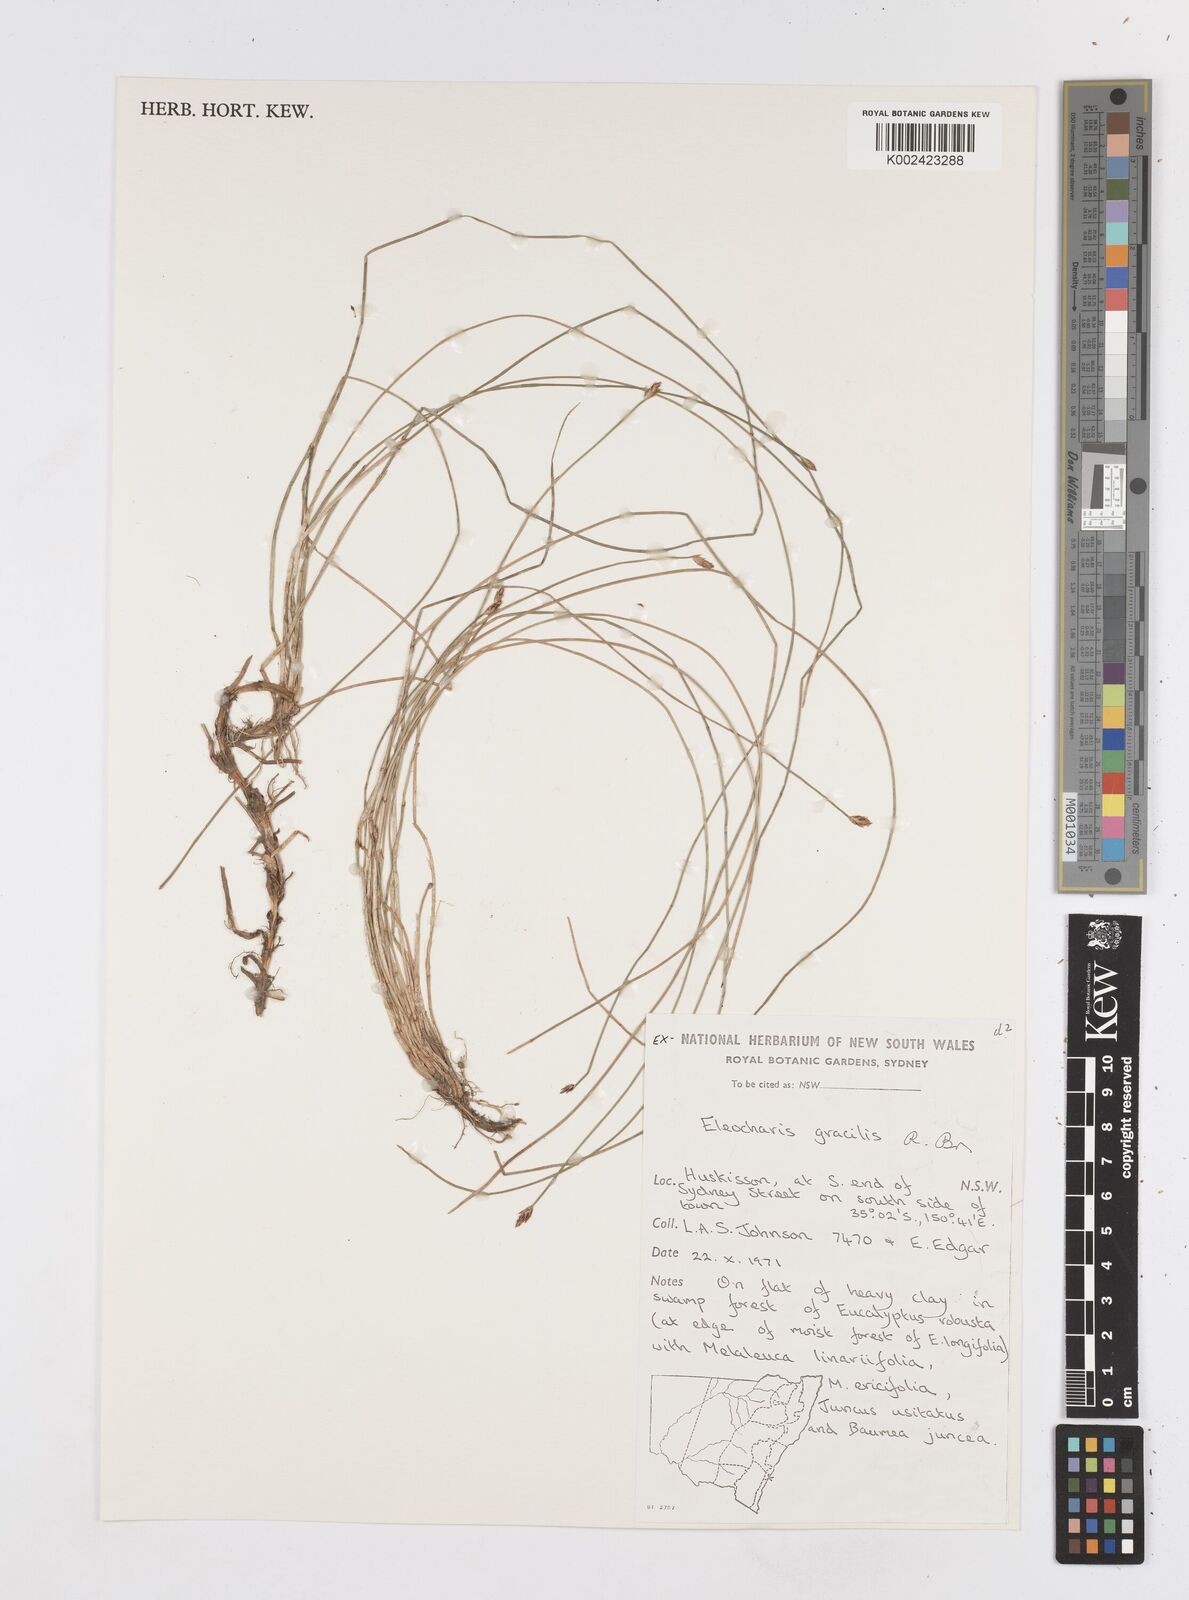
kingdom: Plantae
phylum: Tracheophyta
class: Liliopsida
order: Poales
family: Cyperaceae
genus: Eleocharis
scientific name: Eleocharis multicaulis
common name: Many-stalked spike-rush
